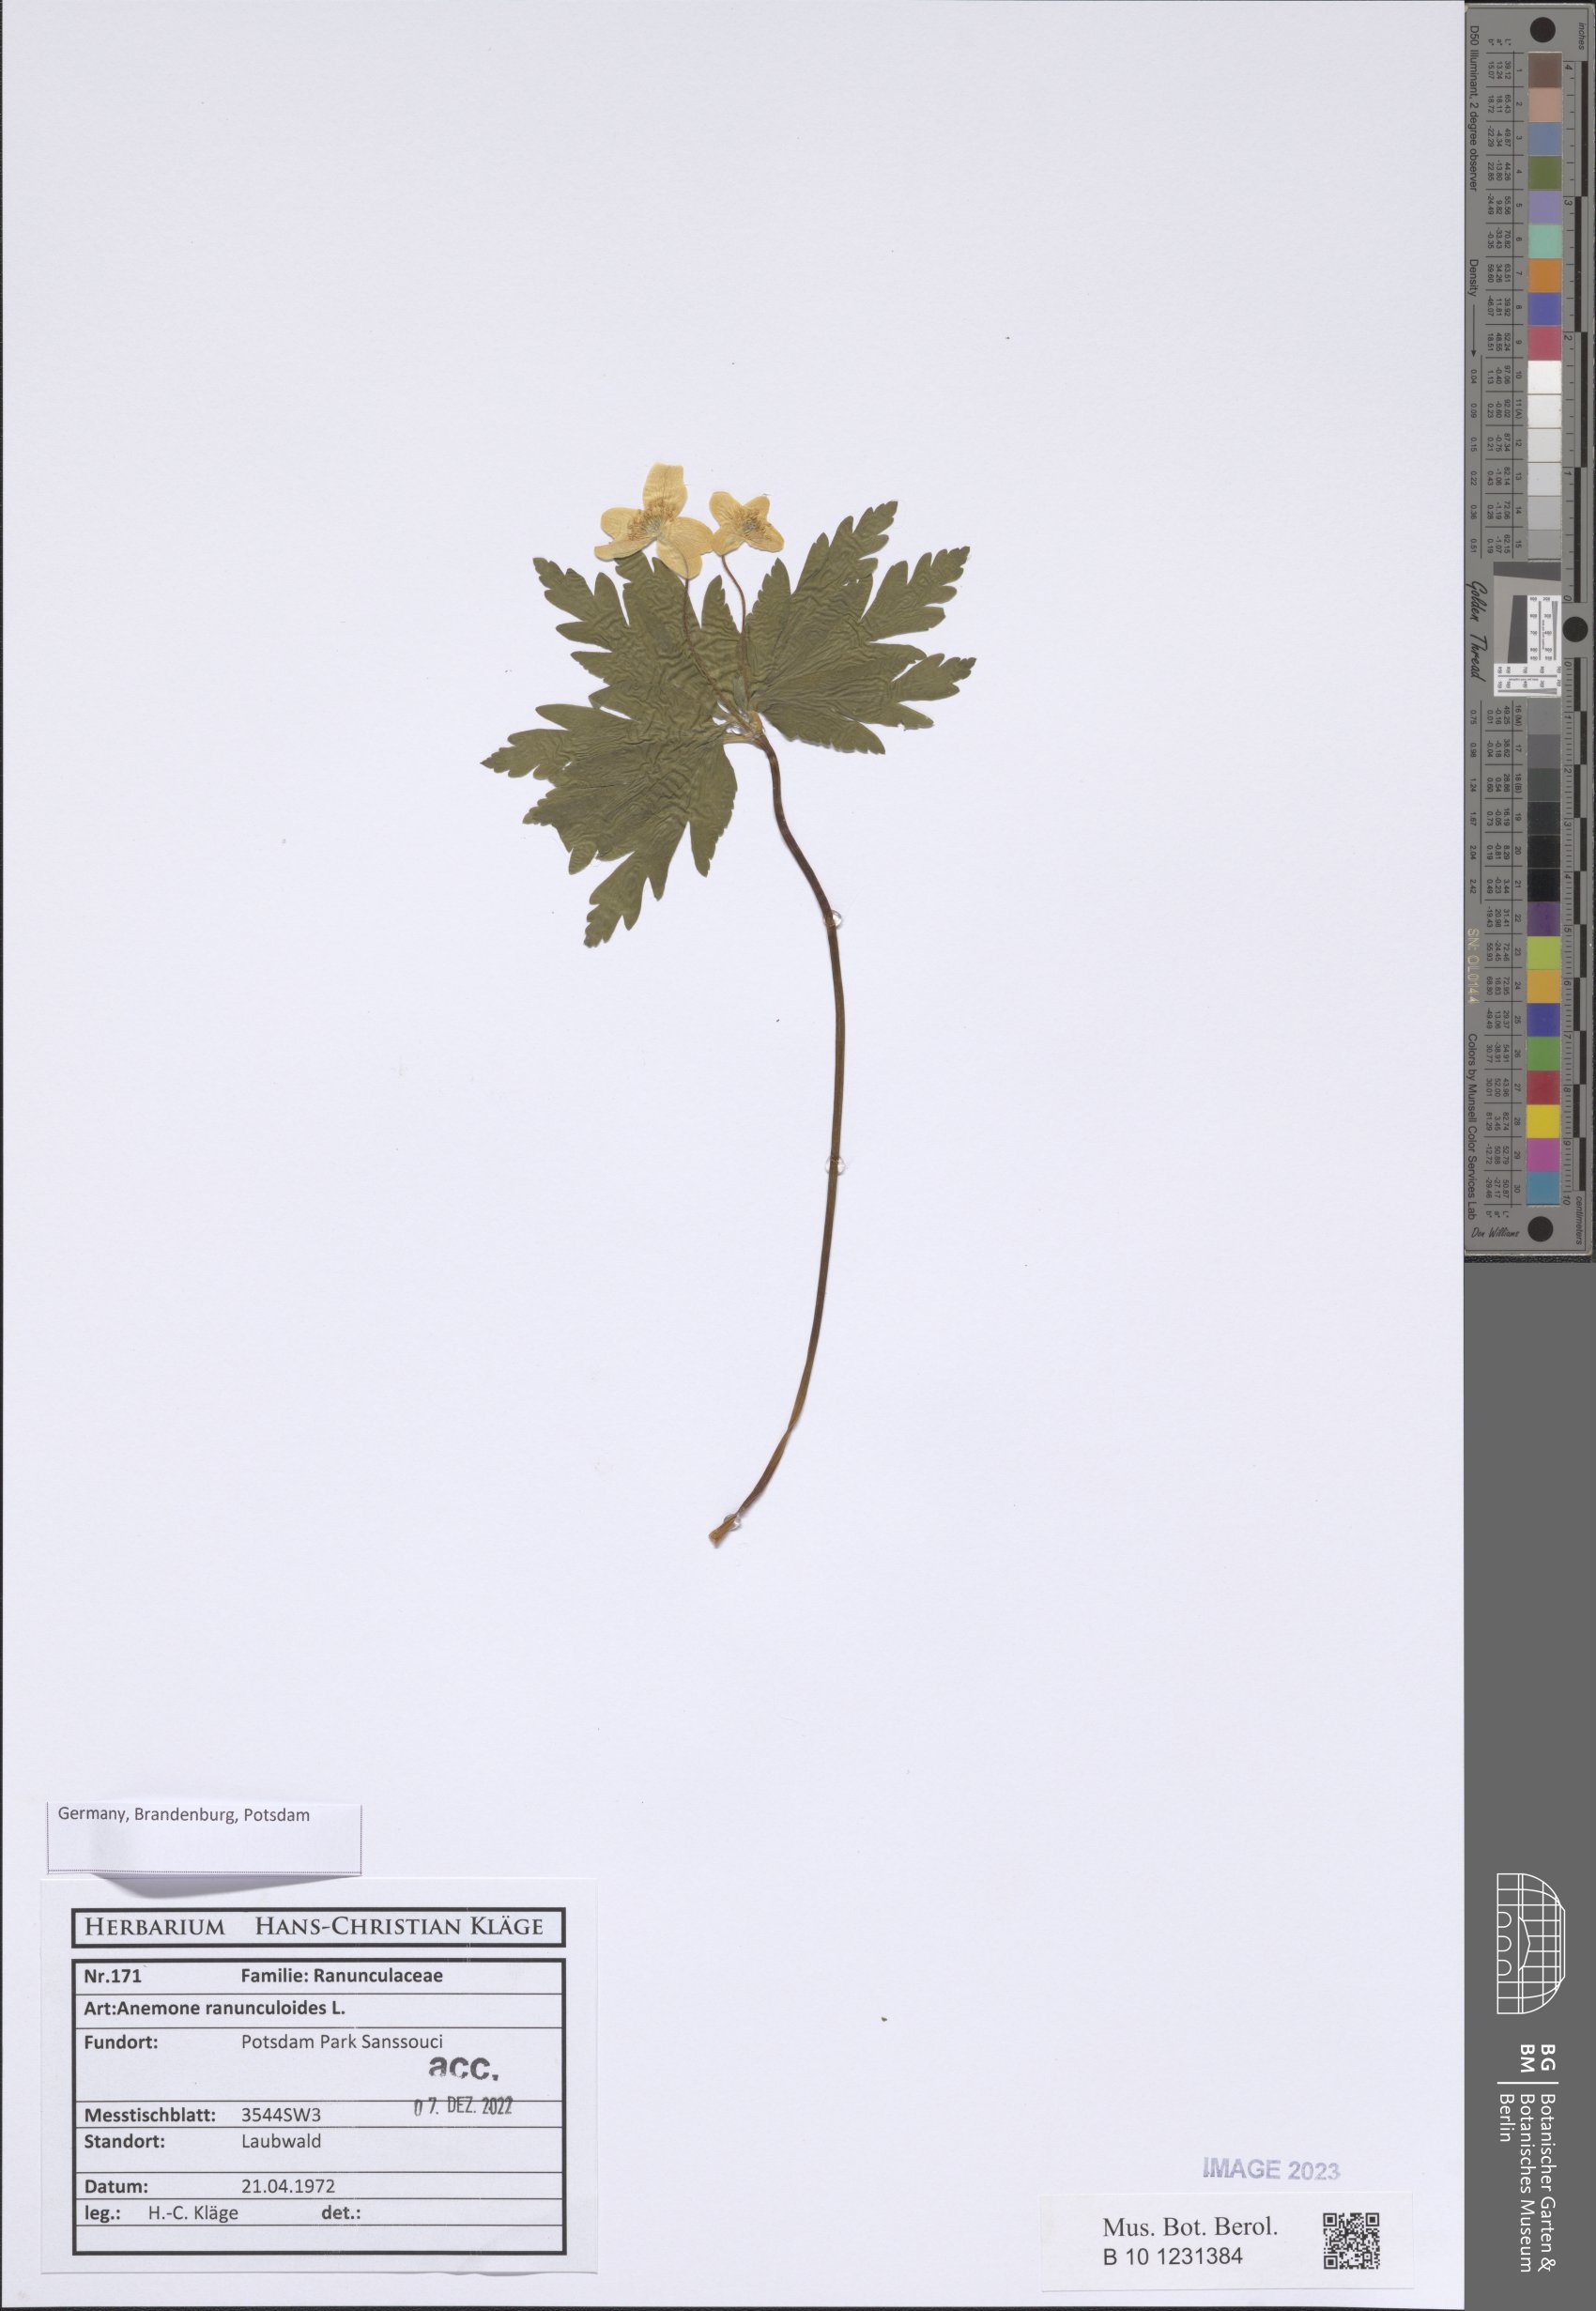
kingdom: Plantae
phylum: Tracheophyta
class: Magnoliopsida
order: Ranunculales
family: Ranunculaceae
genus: Anemone
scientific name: Anemone ranunculoides
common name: Yellow anemone
